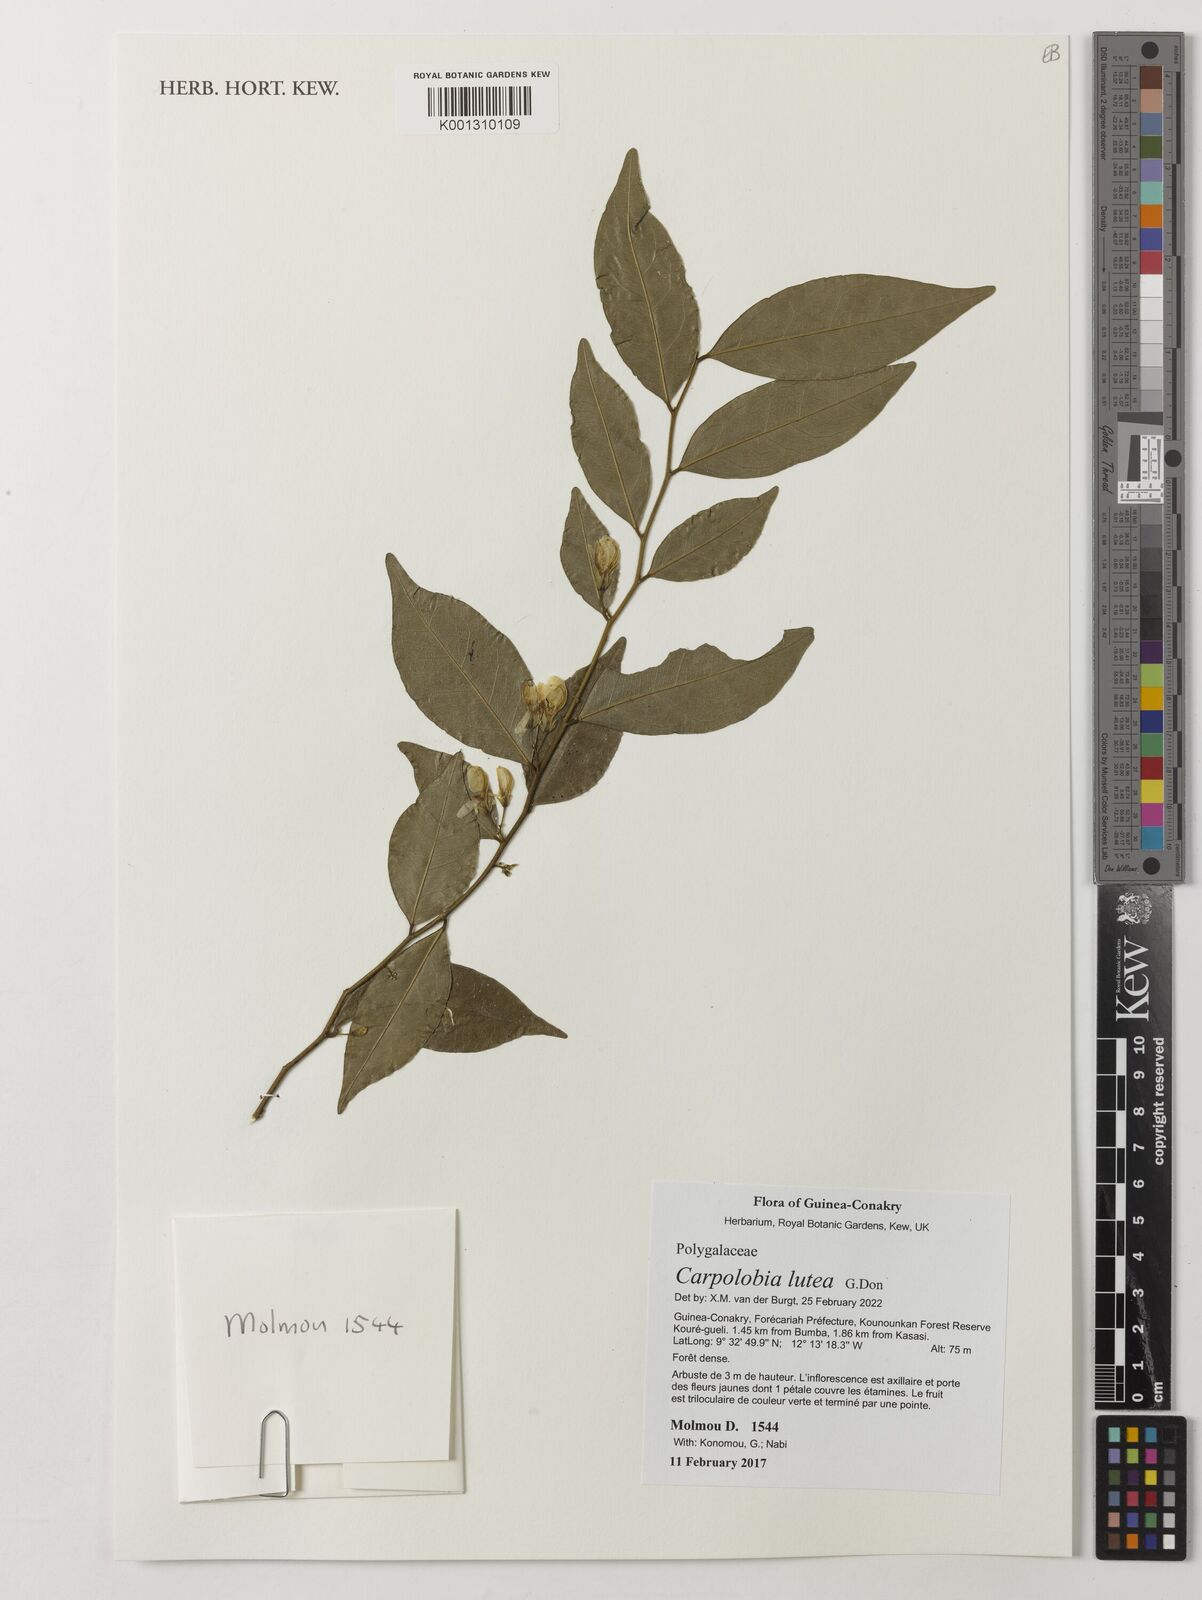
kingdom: Plantae
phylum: Tracheophyta
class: Magnoliopsida
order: Fabales
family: Polygalaceae
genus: Carpolobia
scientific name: Carpolobia lutea
